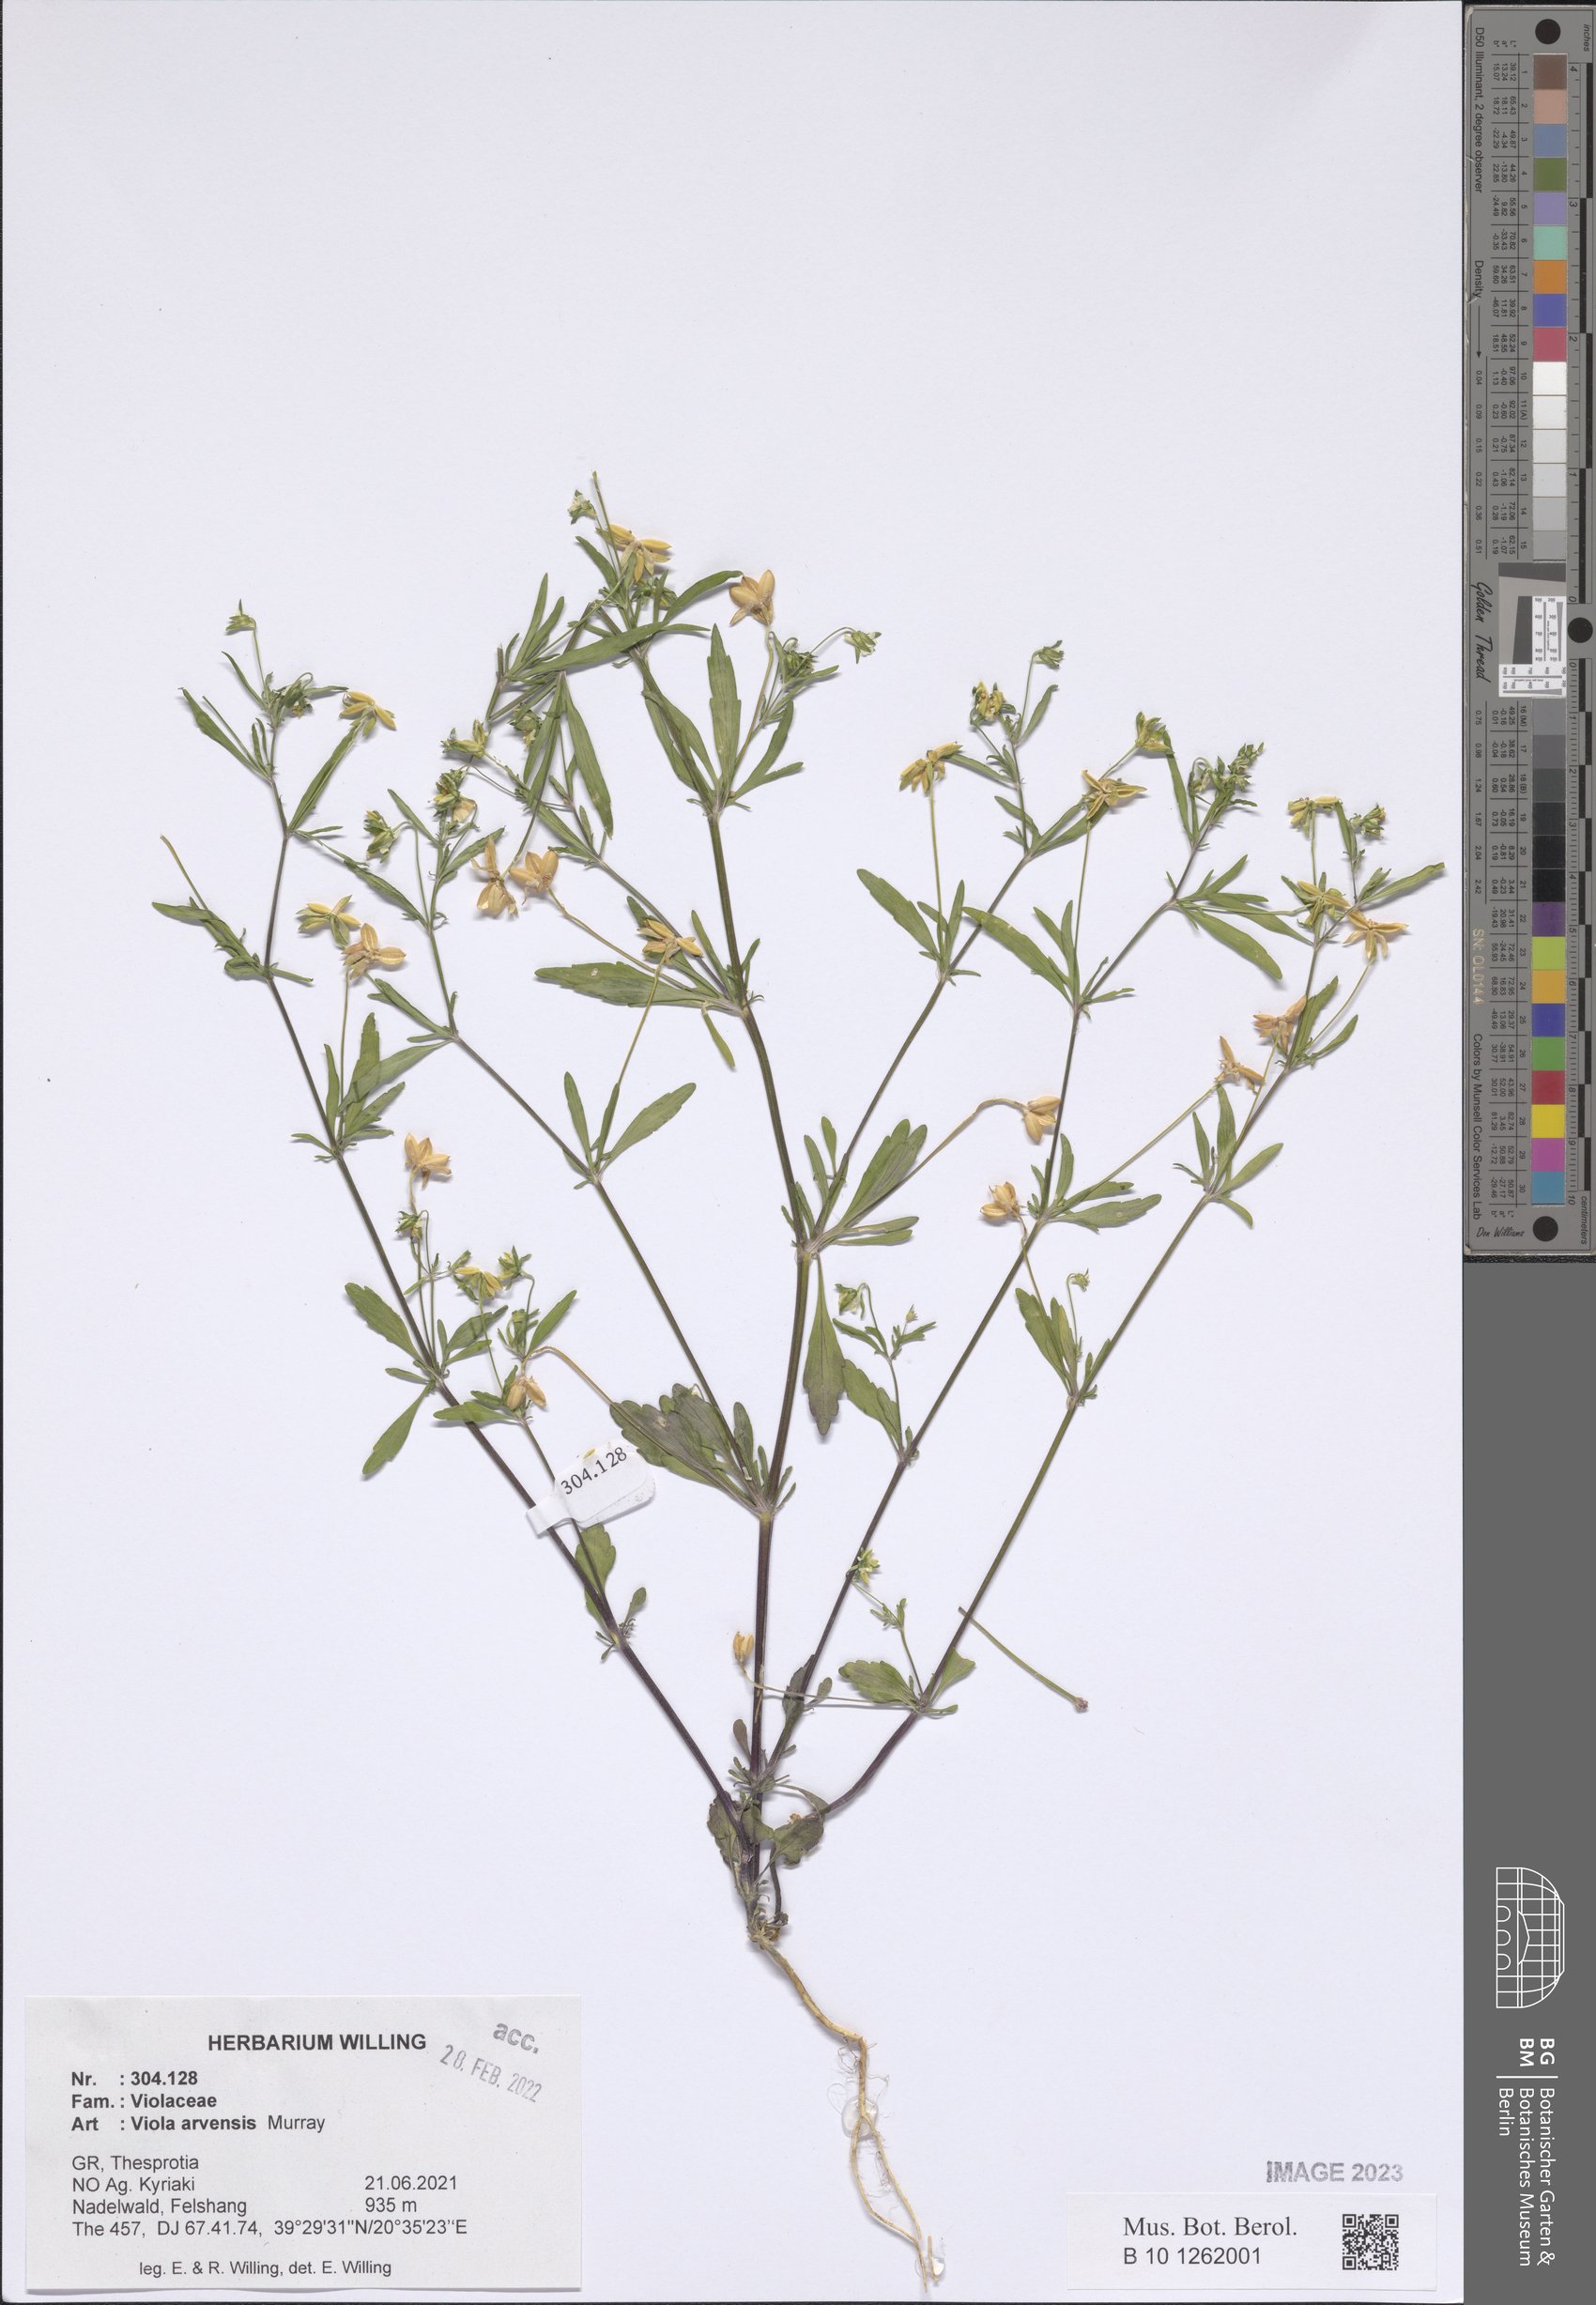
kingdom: Plantae
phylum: Tracheophyta
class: Magnoliopsida
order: Malpighiales
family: Violaceae
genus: Viola
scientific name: Viola arvensis
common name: Field pansy
